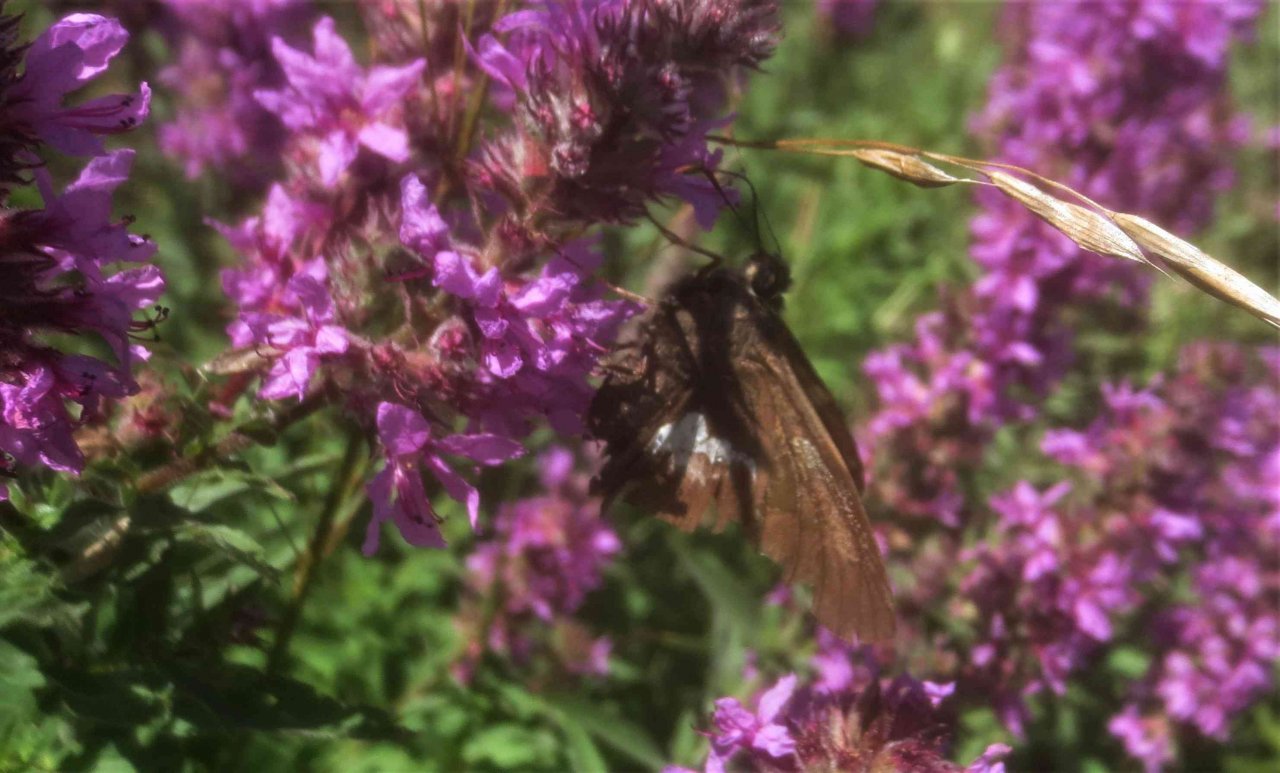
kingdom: Animalia
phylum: Arthropoda
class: Insecta
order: Lepidoptera
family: Hesperiidae
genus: Epargyreus
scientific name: Epargyreus clarus
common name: Silver-spotted Skipper
